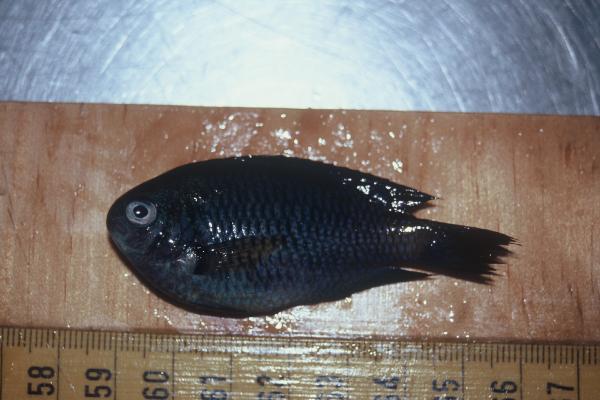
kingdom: Animalia
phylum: Chordata
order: Perciformes
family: Pomacentridae
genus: Pomacentrus
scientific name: Pomacentrus caeruleus
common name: Caerulean damsel
